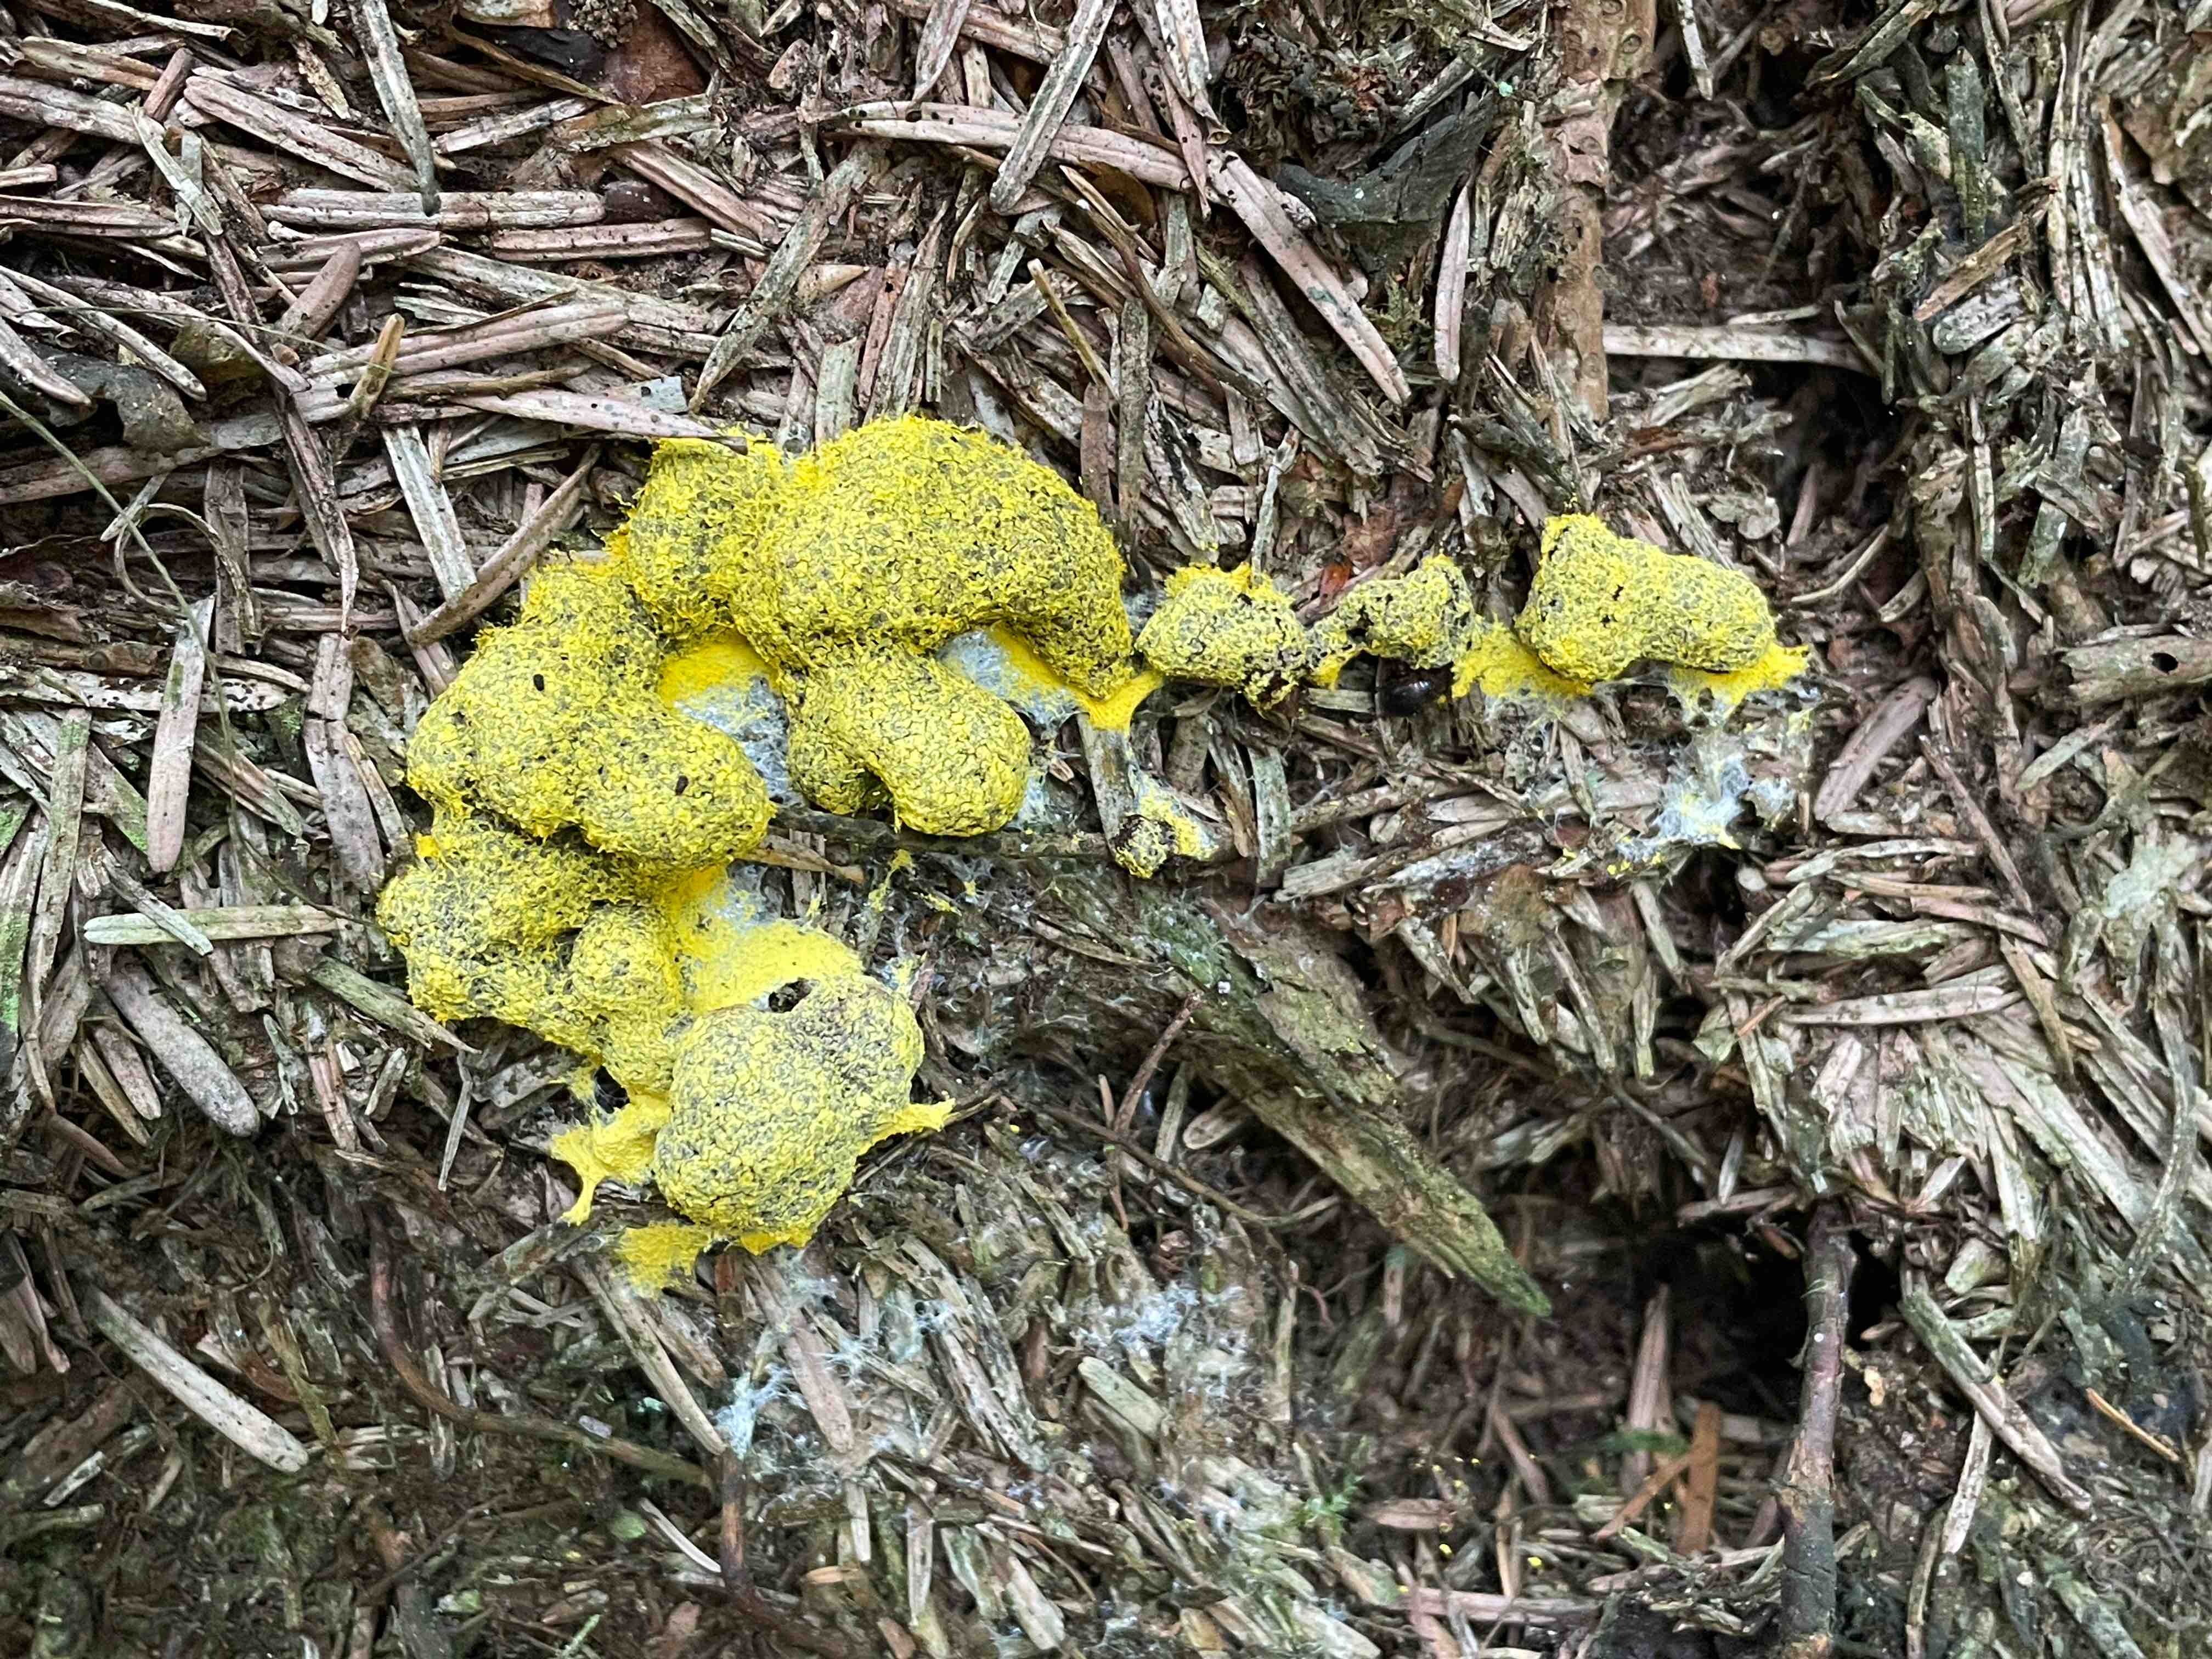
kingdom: Protozoa
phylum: Mycetozoa
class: Myxomycetes
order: Physarales
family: Physaraceae
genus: Fuligo
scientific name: Fuligo septica
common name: gul troldsmør
